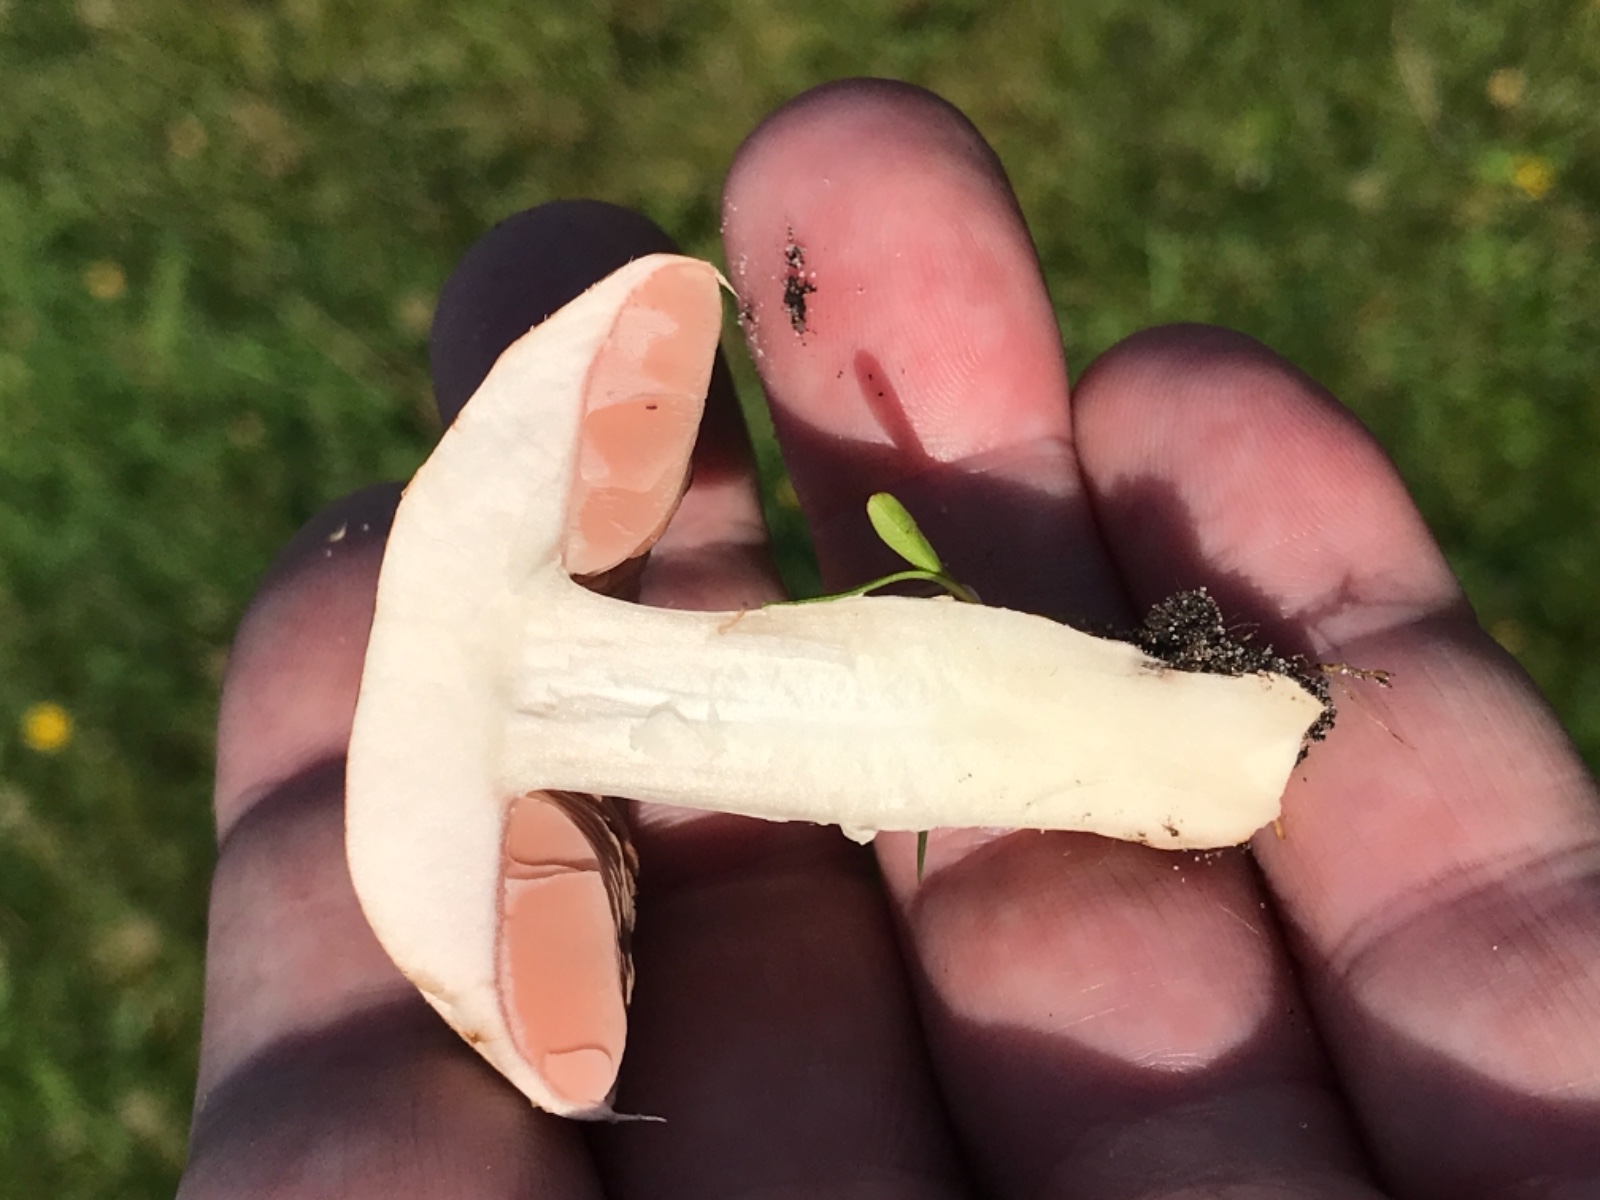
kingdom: Fungi
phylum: Basidiomycota
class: Agaricomycetes
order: Agaricales
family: Agaricaceae
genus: Agaricus
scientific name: Agaricus
